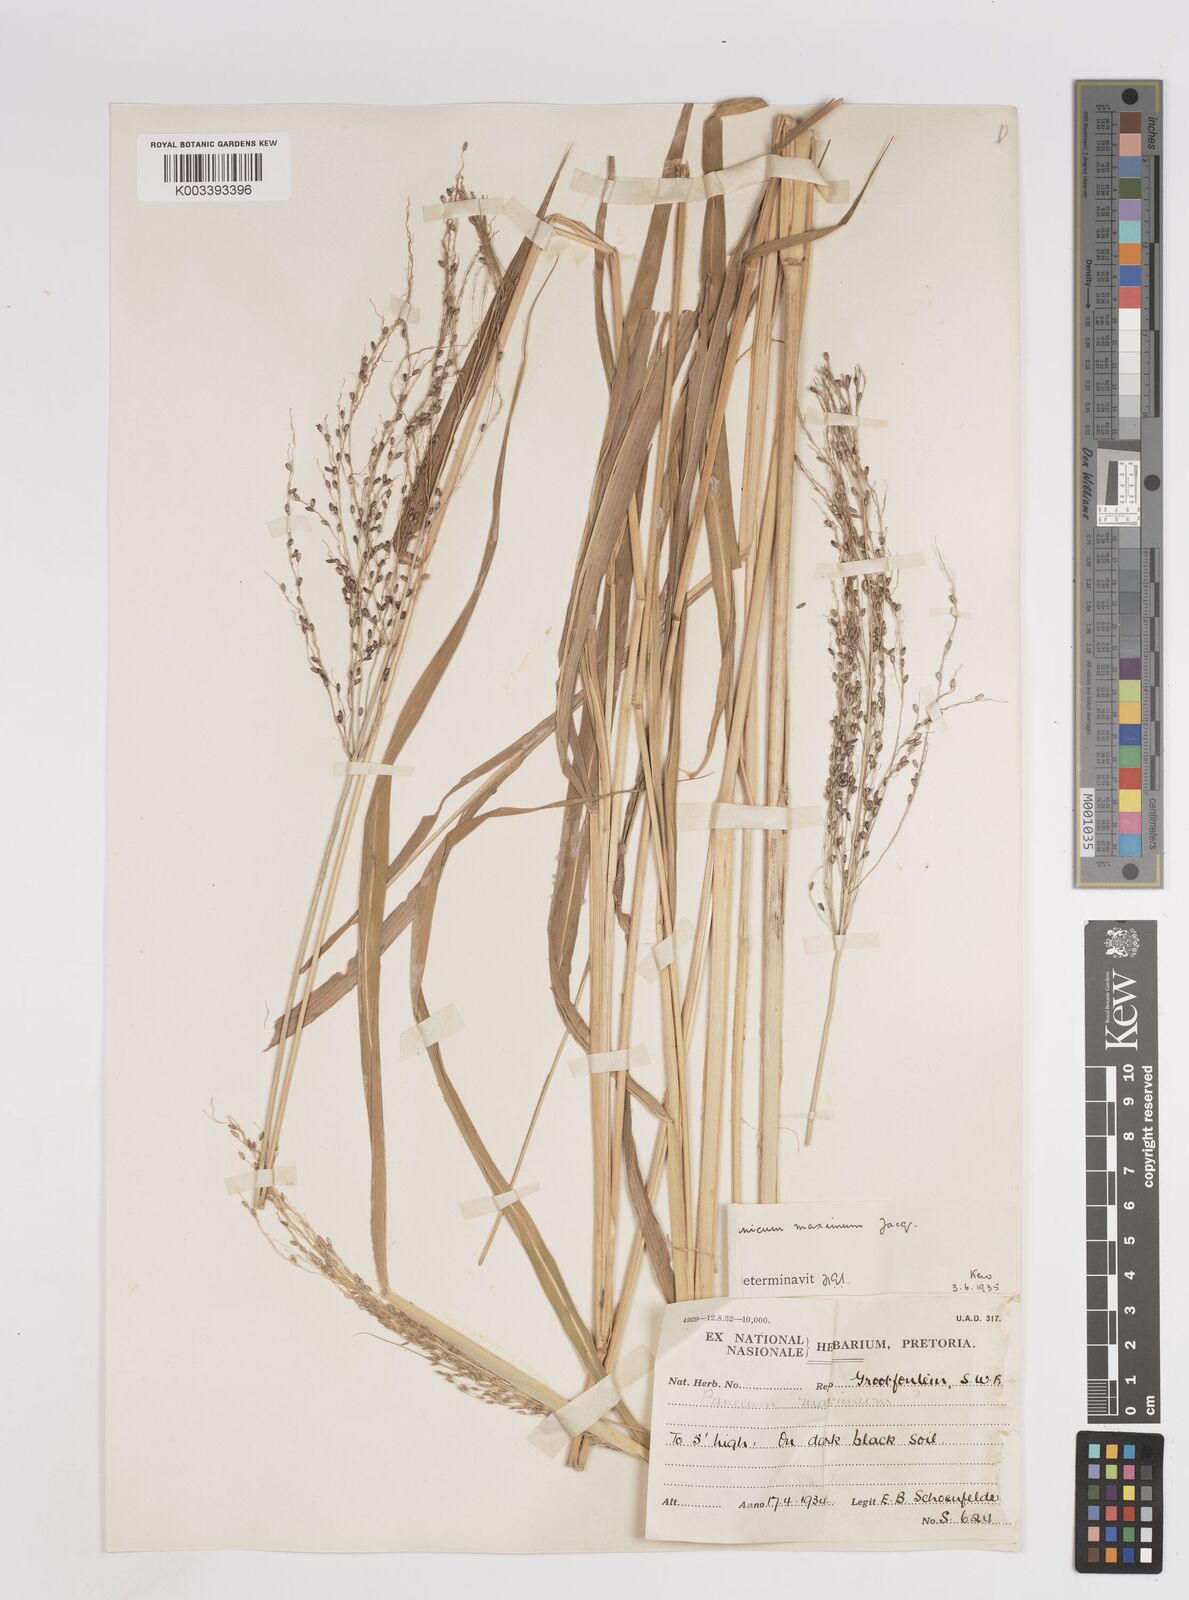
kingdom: Plantae
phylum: Tracheophyta
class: Liliopsida
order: Poales
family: Poaceae
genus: Megathyrsus
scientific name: Megathyrsus maximus
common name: Guineagrass
